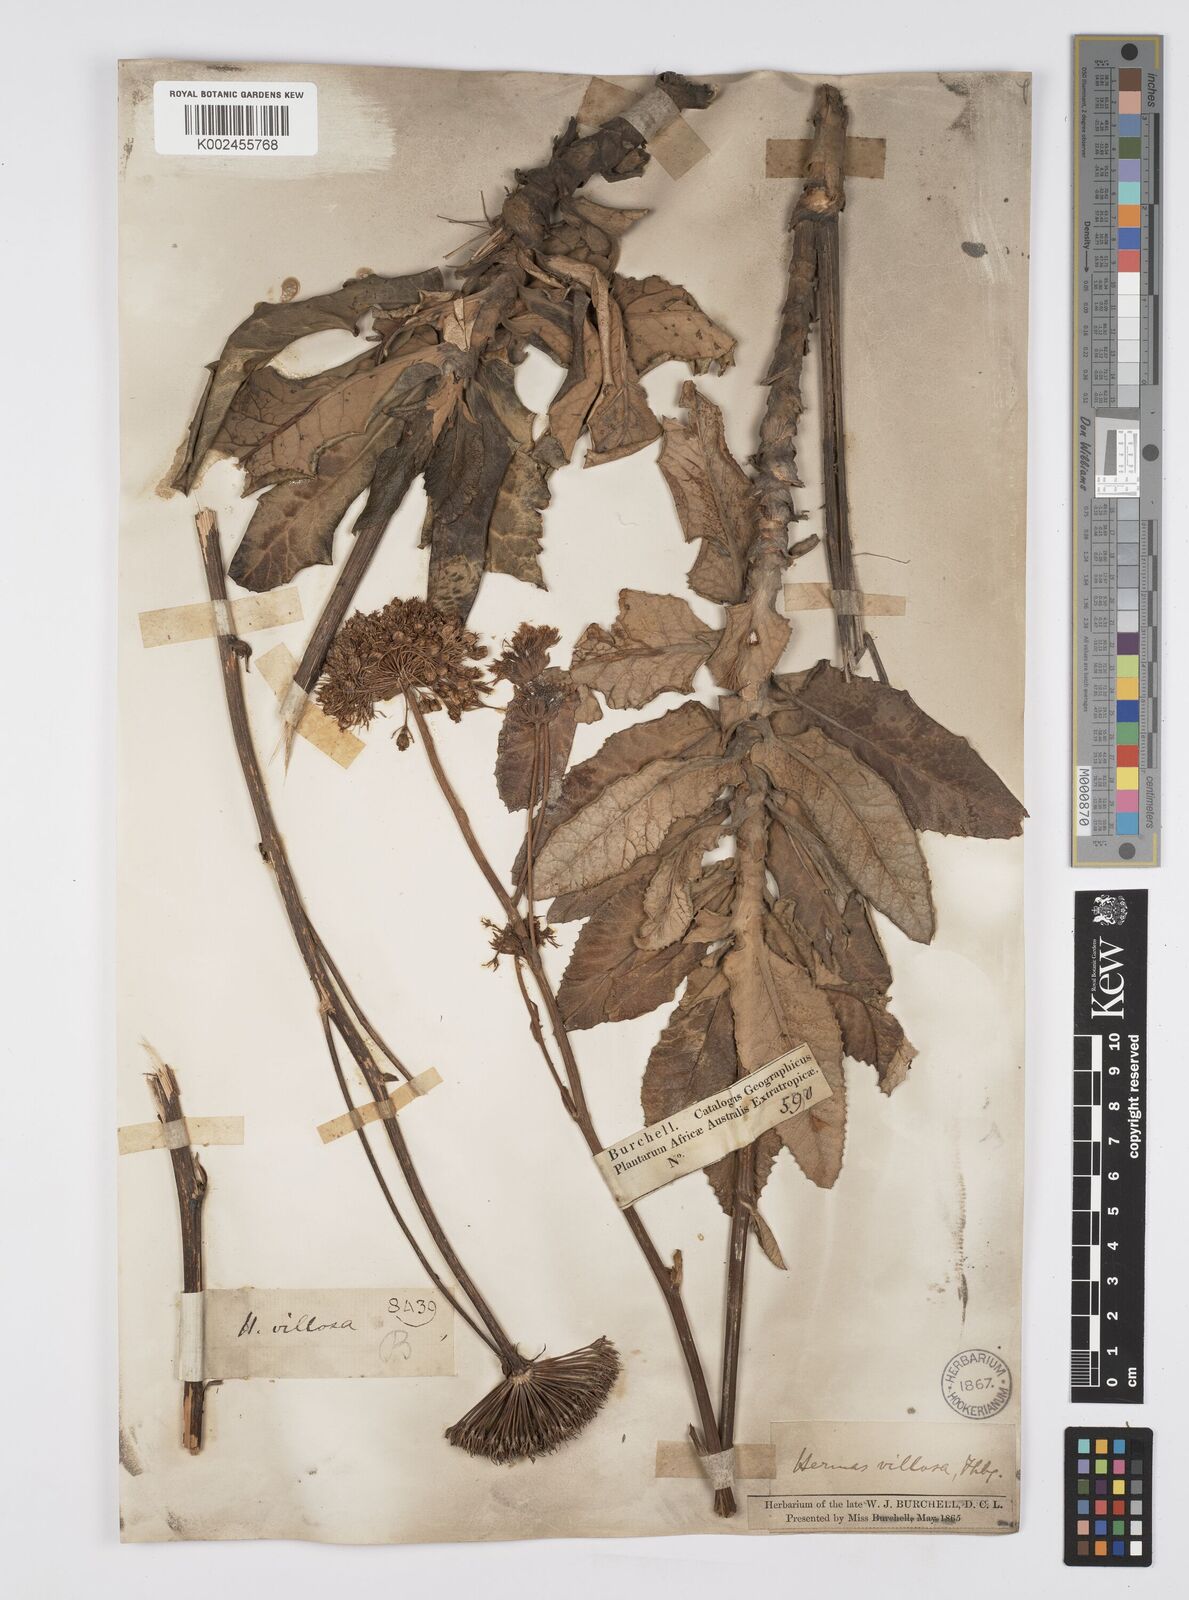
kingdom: Plantae
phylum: Tracheophyta
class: Magnoliopsida
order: Apiales
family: Apiaceae
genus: Hermas
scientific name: Hermas villosa
